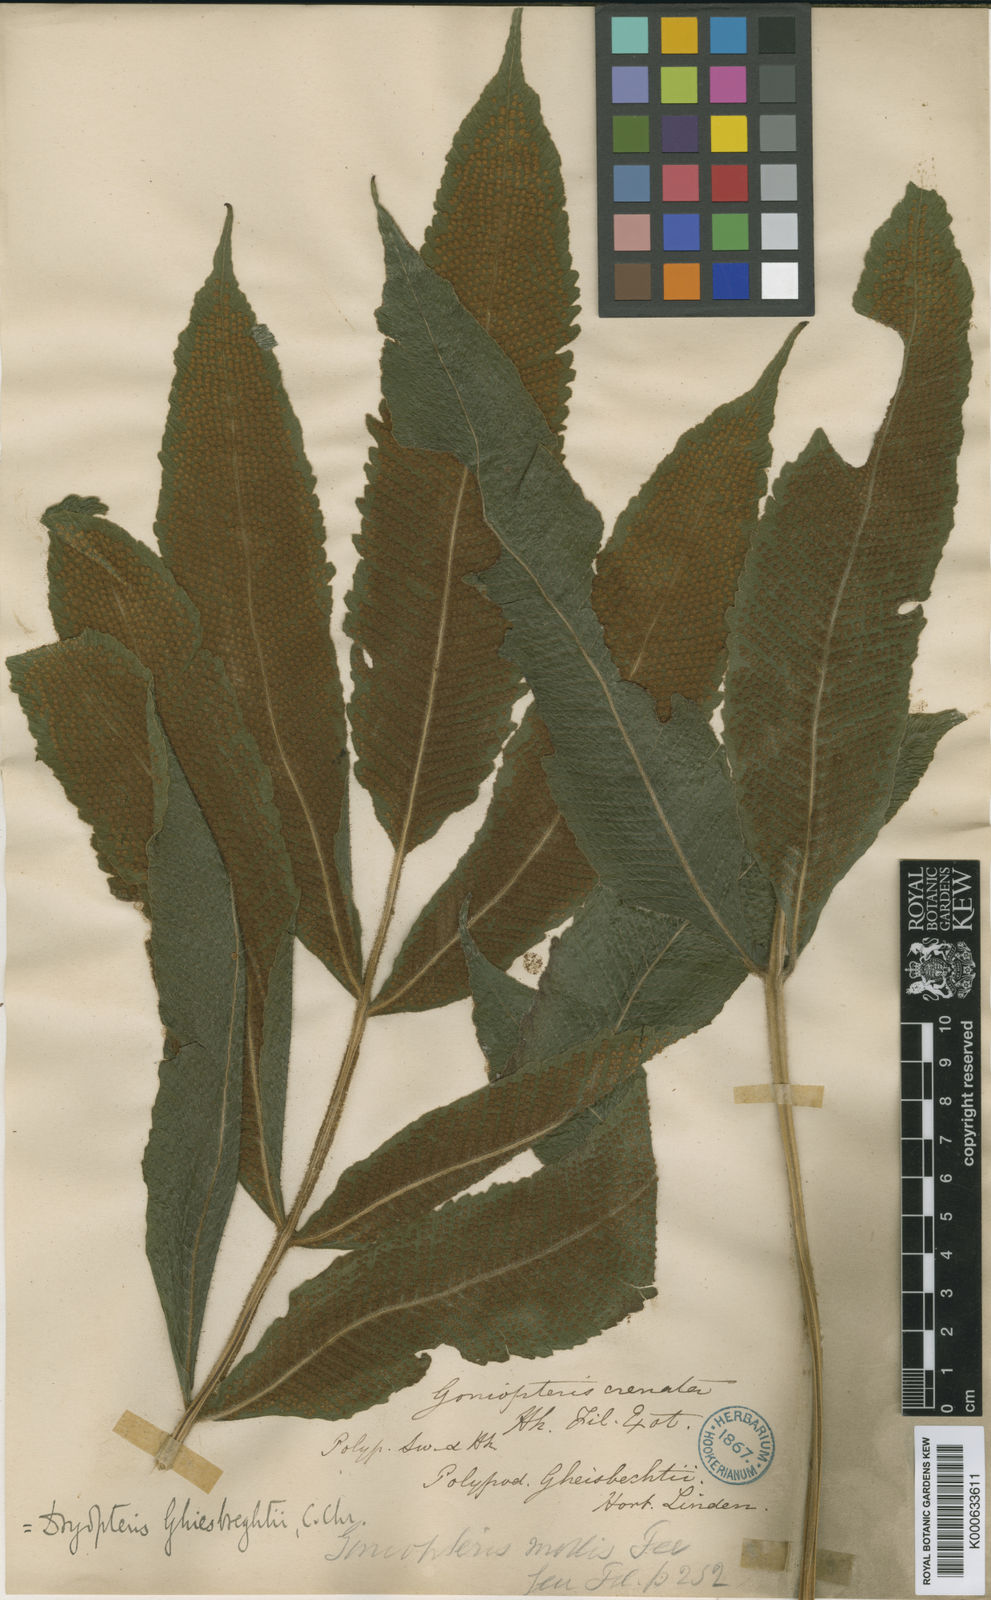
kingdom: Plantae
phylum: Tracheophyta
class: Polypodiopsida
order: Polypodiales
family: Thelypteridaceae
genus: Goniopteris
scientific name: Goniopteris ghiesbrechtii
